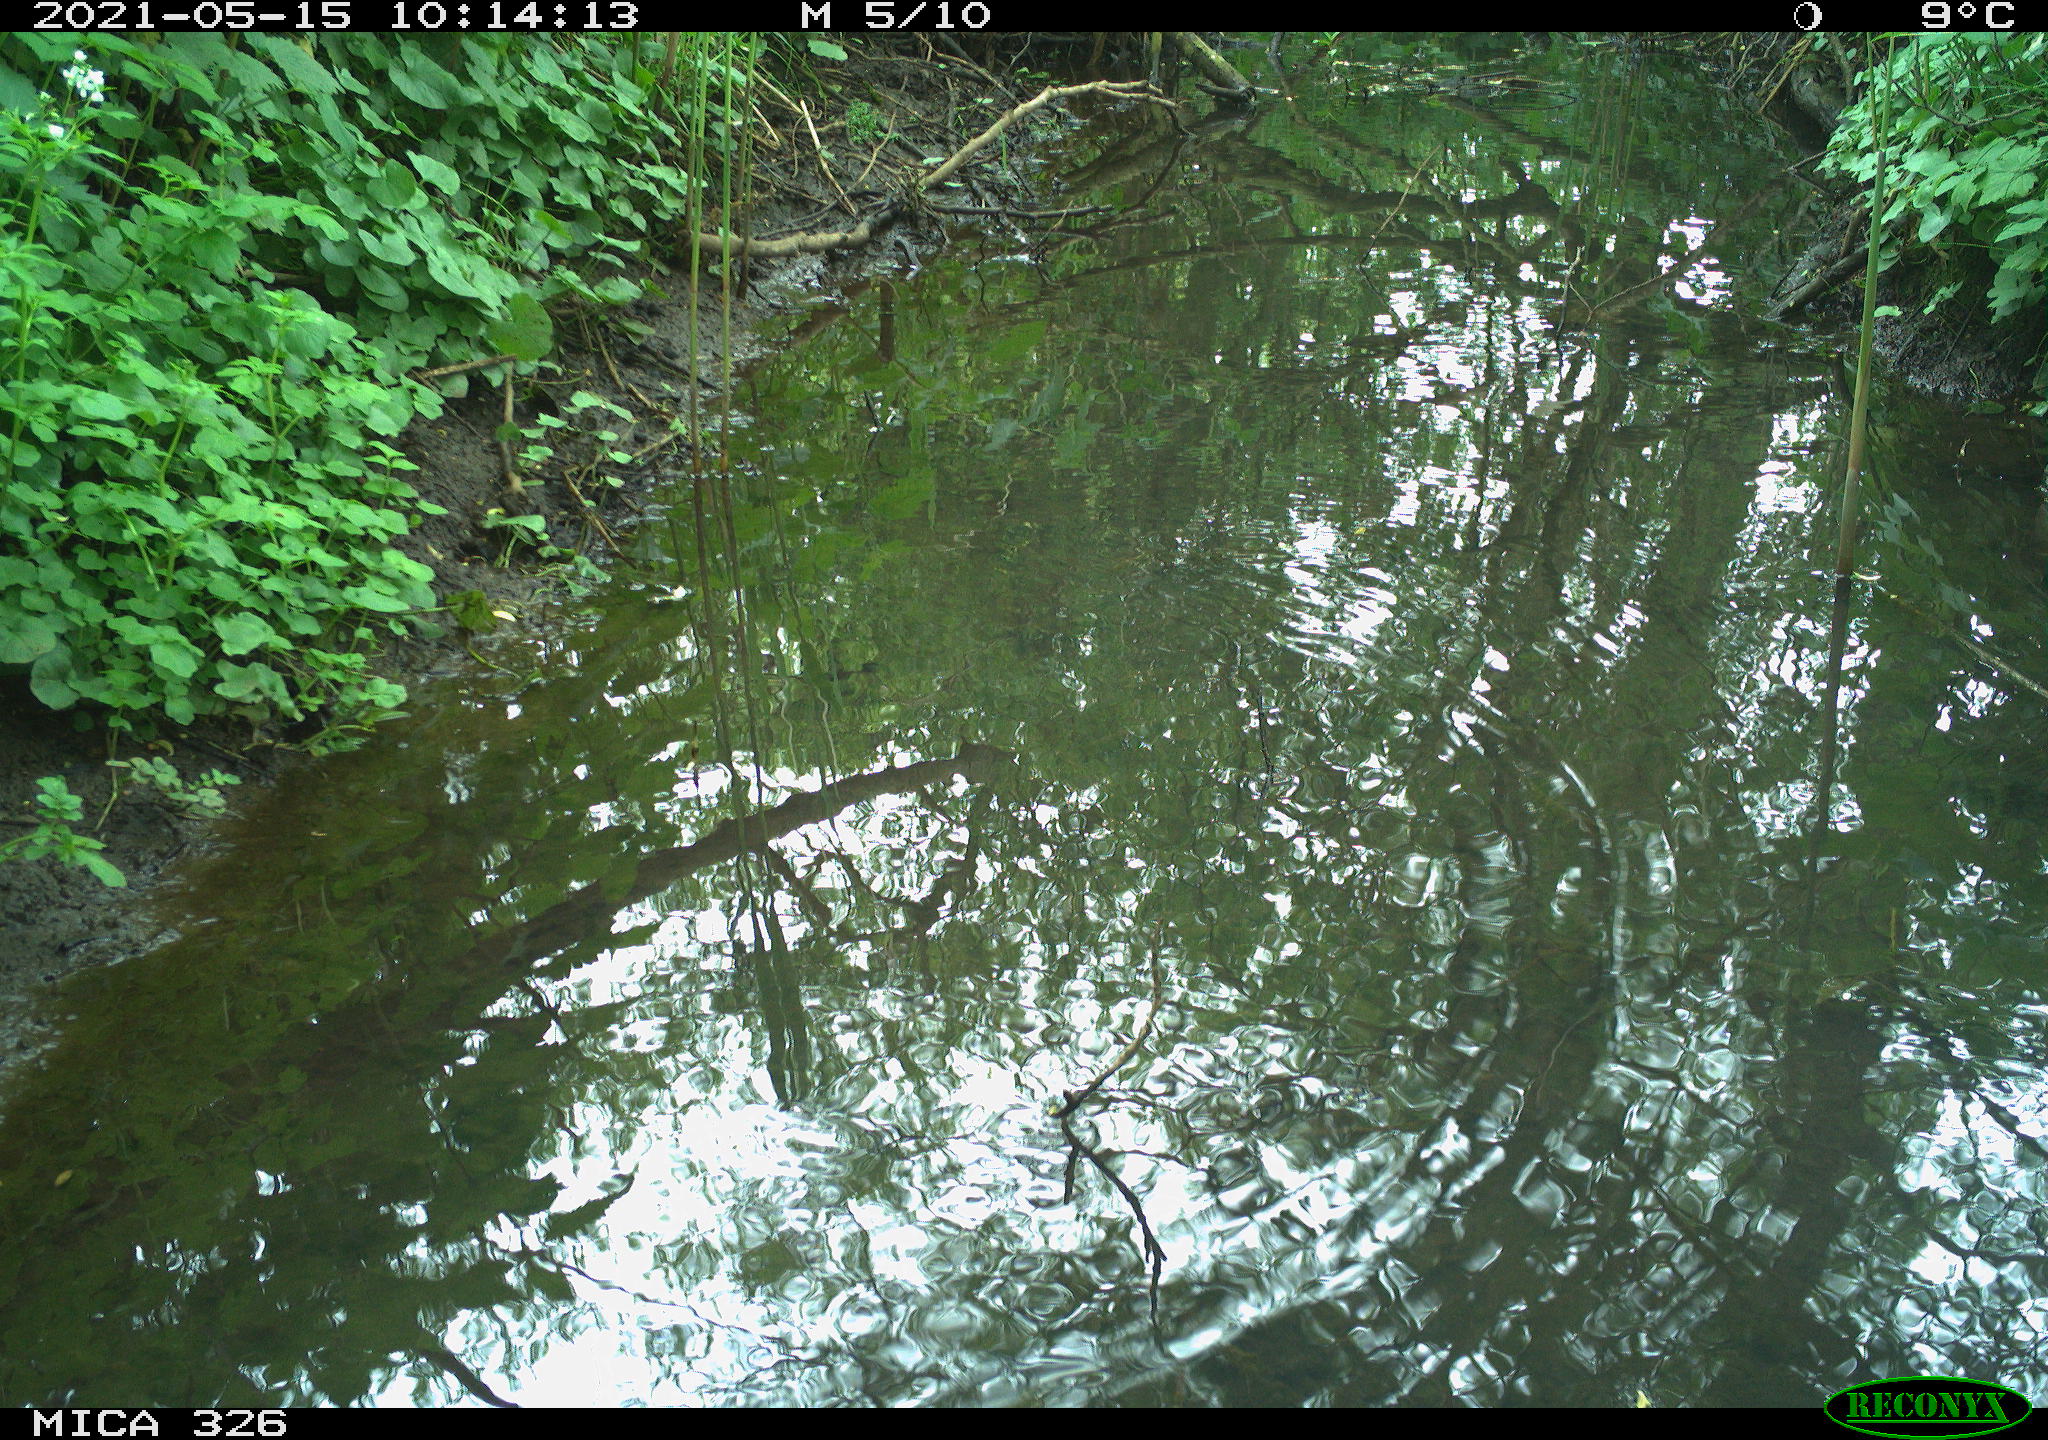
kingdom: Animalia
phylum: Chordata
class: Aves
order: Passeriformes
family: Turdidae
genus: Turdus
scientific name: Turdus merula
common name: Common blackbird
